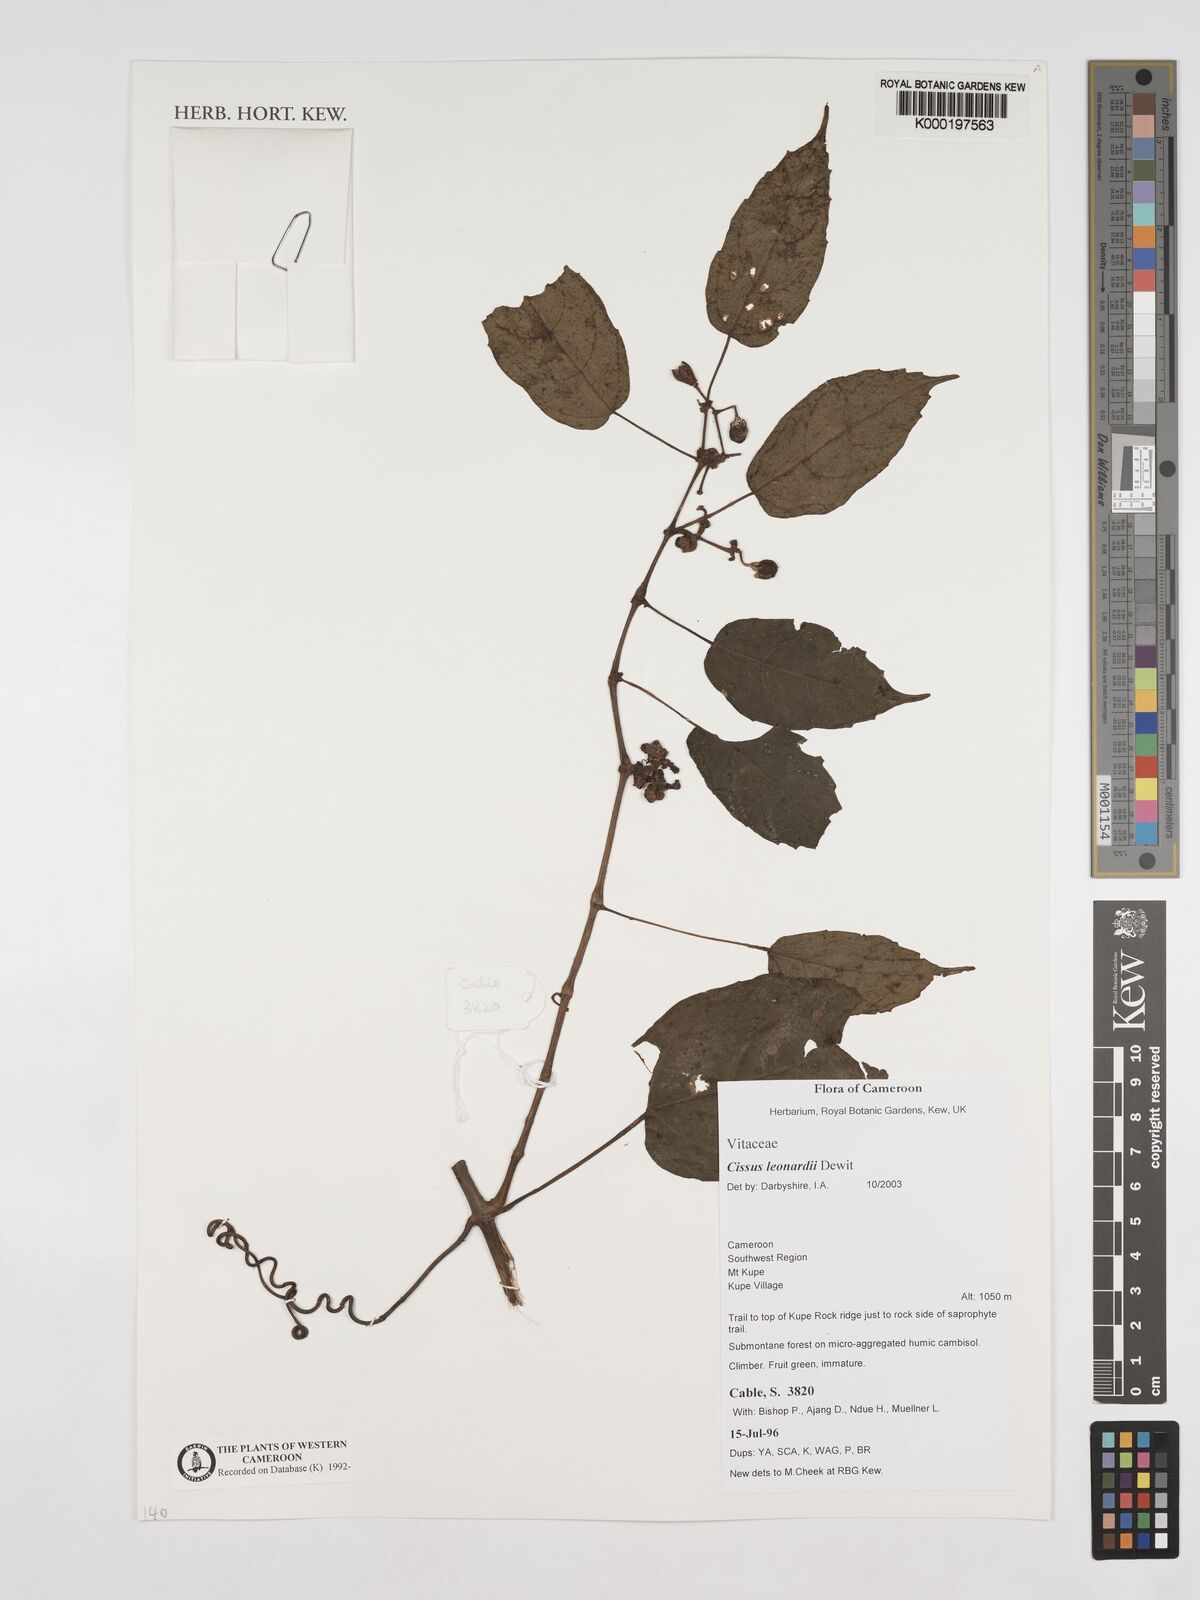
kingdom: Plantae
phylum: Tracheophyta
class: Magnoliopsida
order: Vitales
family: Vitaceae
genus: Cissus
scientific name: Cissus leonardii
